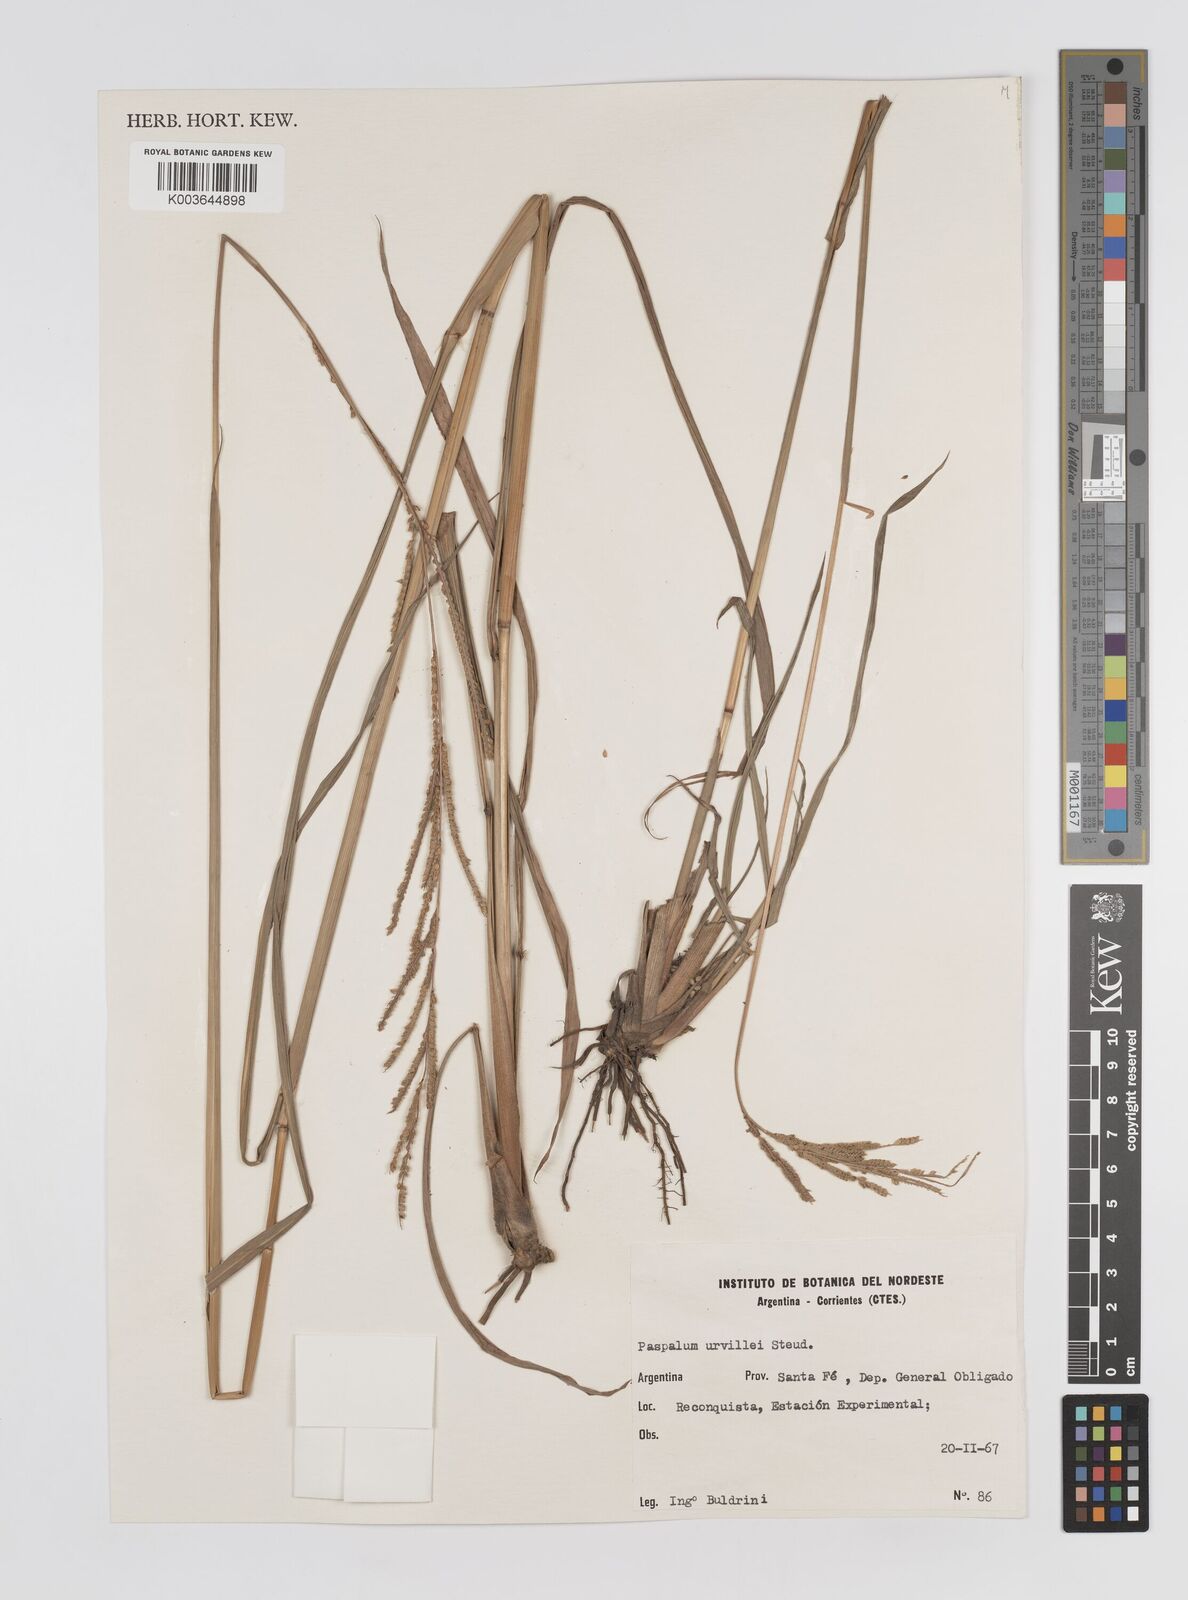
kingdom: Plantae
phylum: Tracheophyta
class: Liliopsida
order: Poales
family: Poaceae
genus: Paspalum
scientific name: Paspalum urvillei
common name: Vasey's grass
